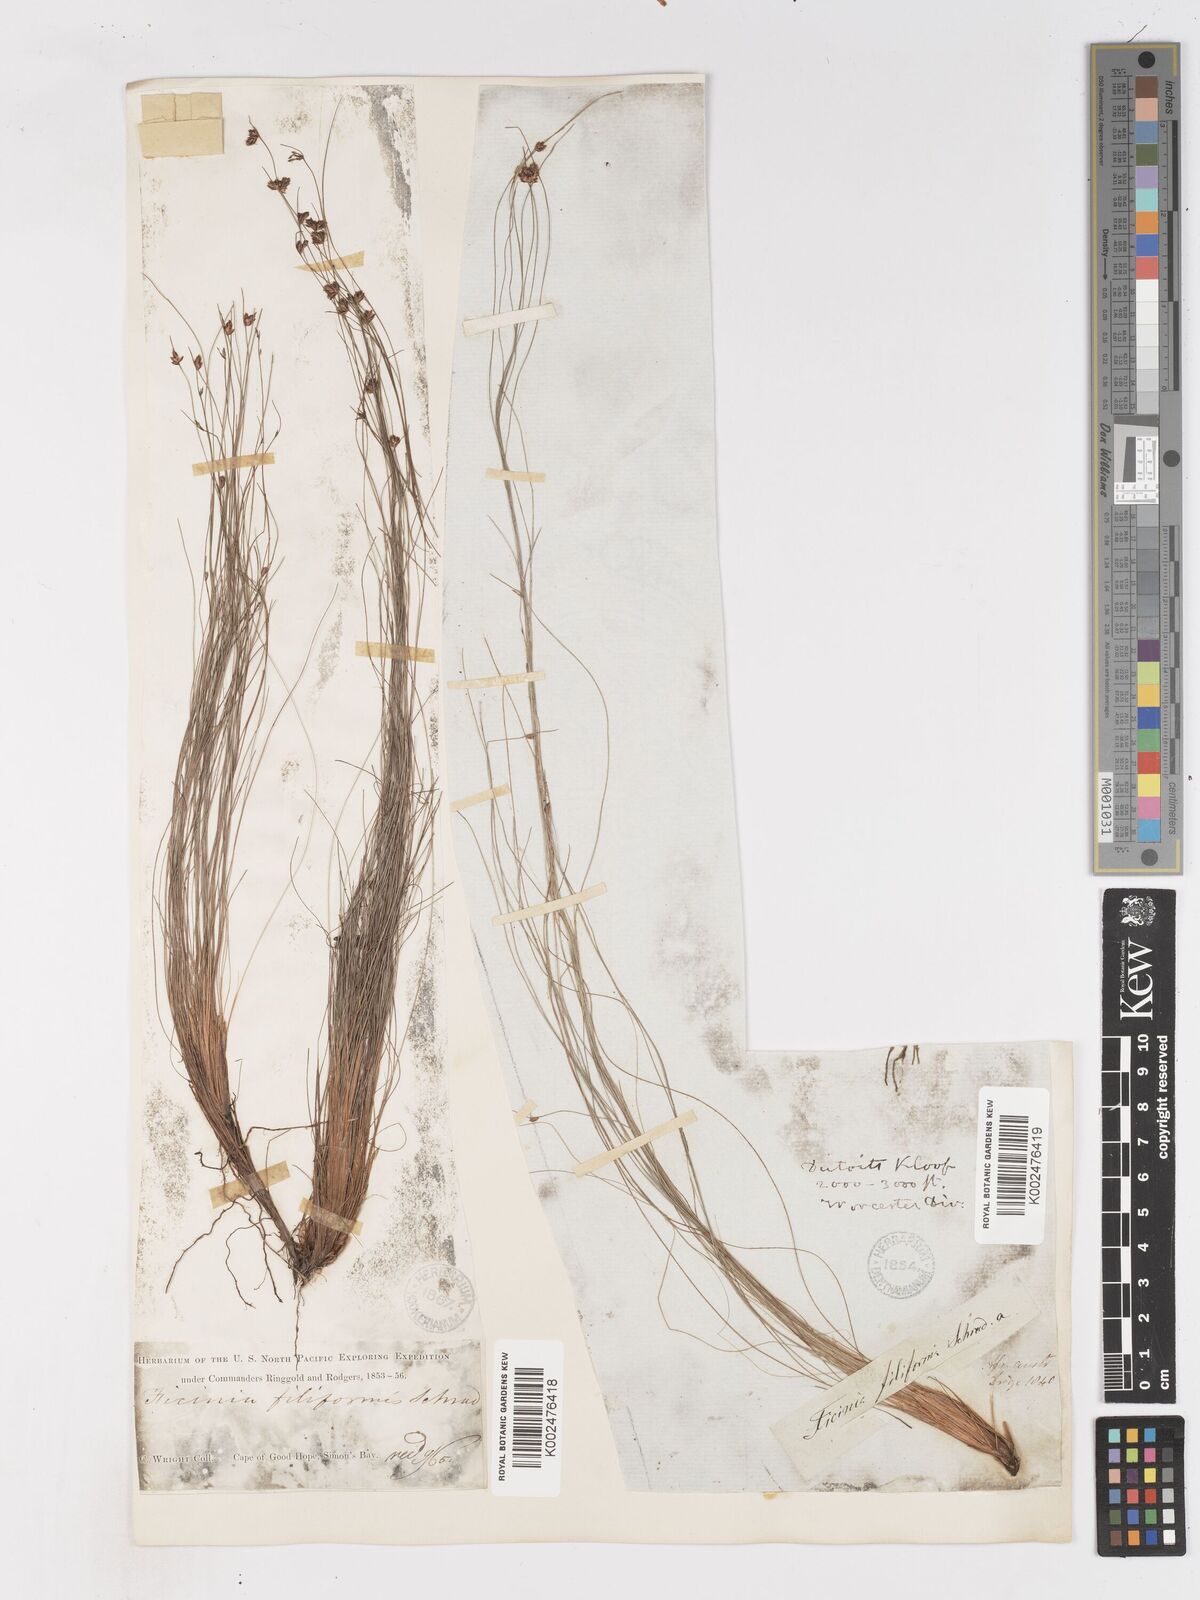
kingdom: Plantae
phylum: Tracheophyta
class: Liliopsida
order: Poales
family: Cyperaceae
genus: Ficinia
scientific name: Ficinia crinita
